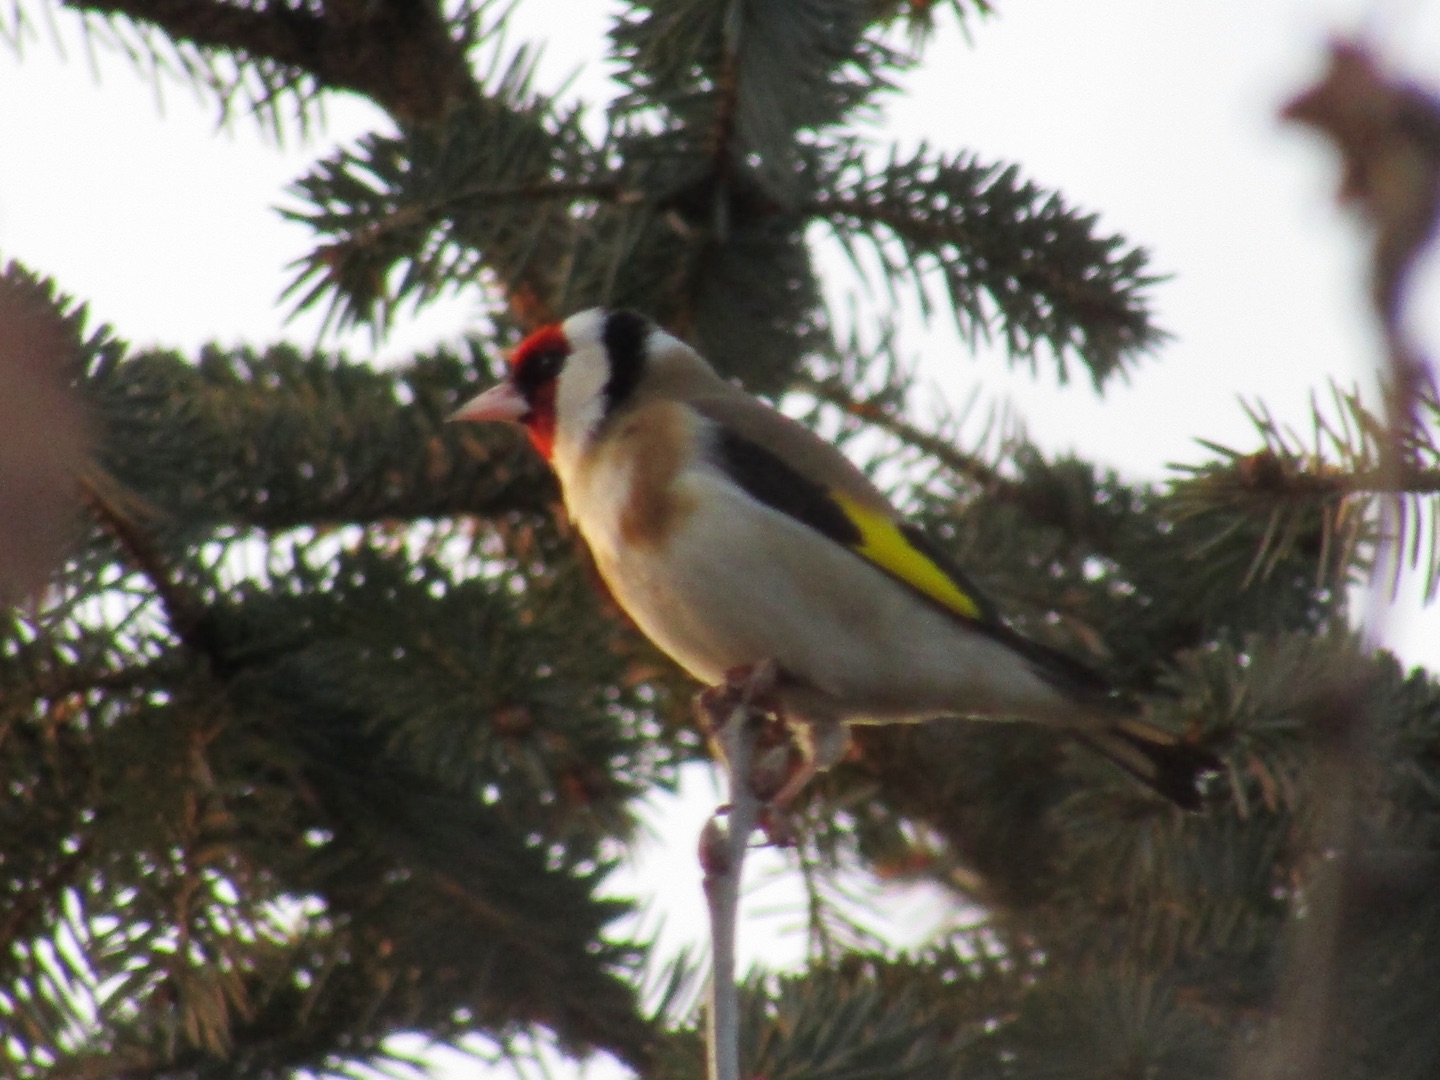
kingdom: Animalia
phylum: Chordata
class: Aves
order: Passeriformes
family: Fringillidae
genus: Carduelis
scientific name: Carduelis carduelis
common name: Stillits
